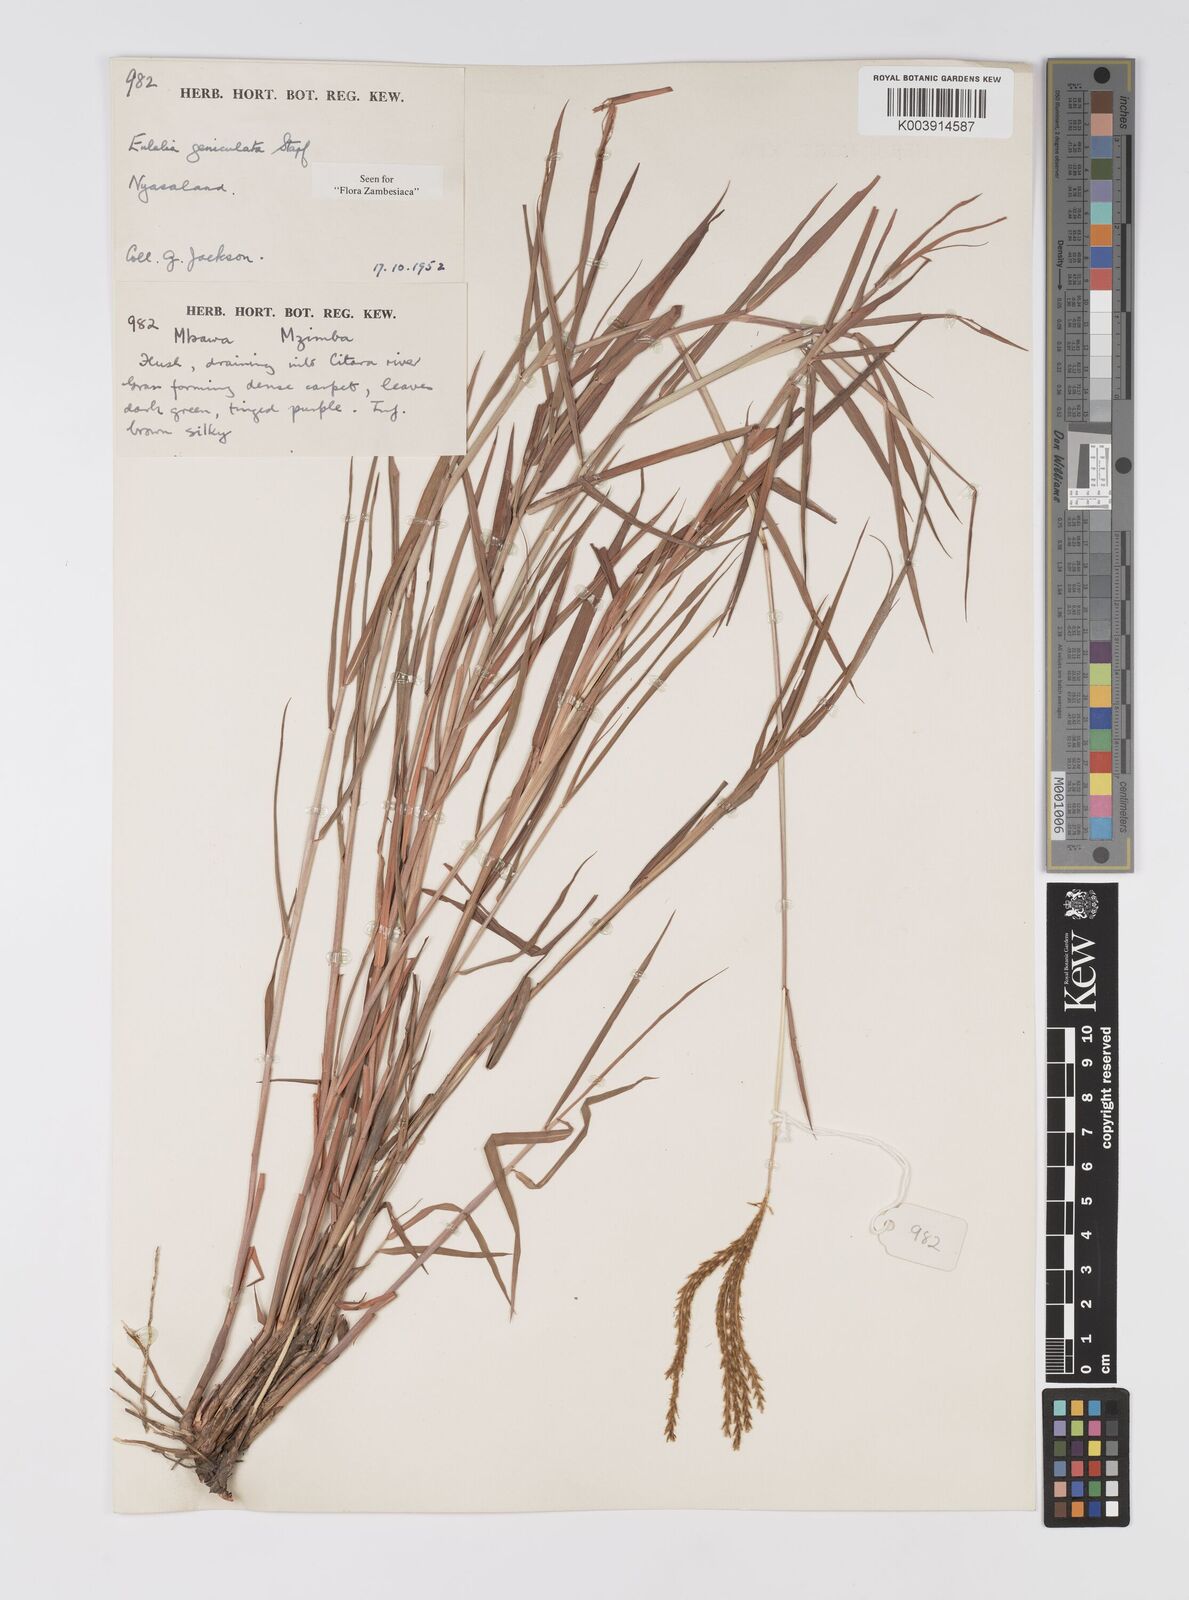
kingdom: Plantae
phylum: Tracheophyta
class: Liliopsida
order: Poales
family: Poaceae
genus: Eulalia
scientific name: Eulalia aurea
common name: Silky browntop
